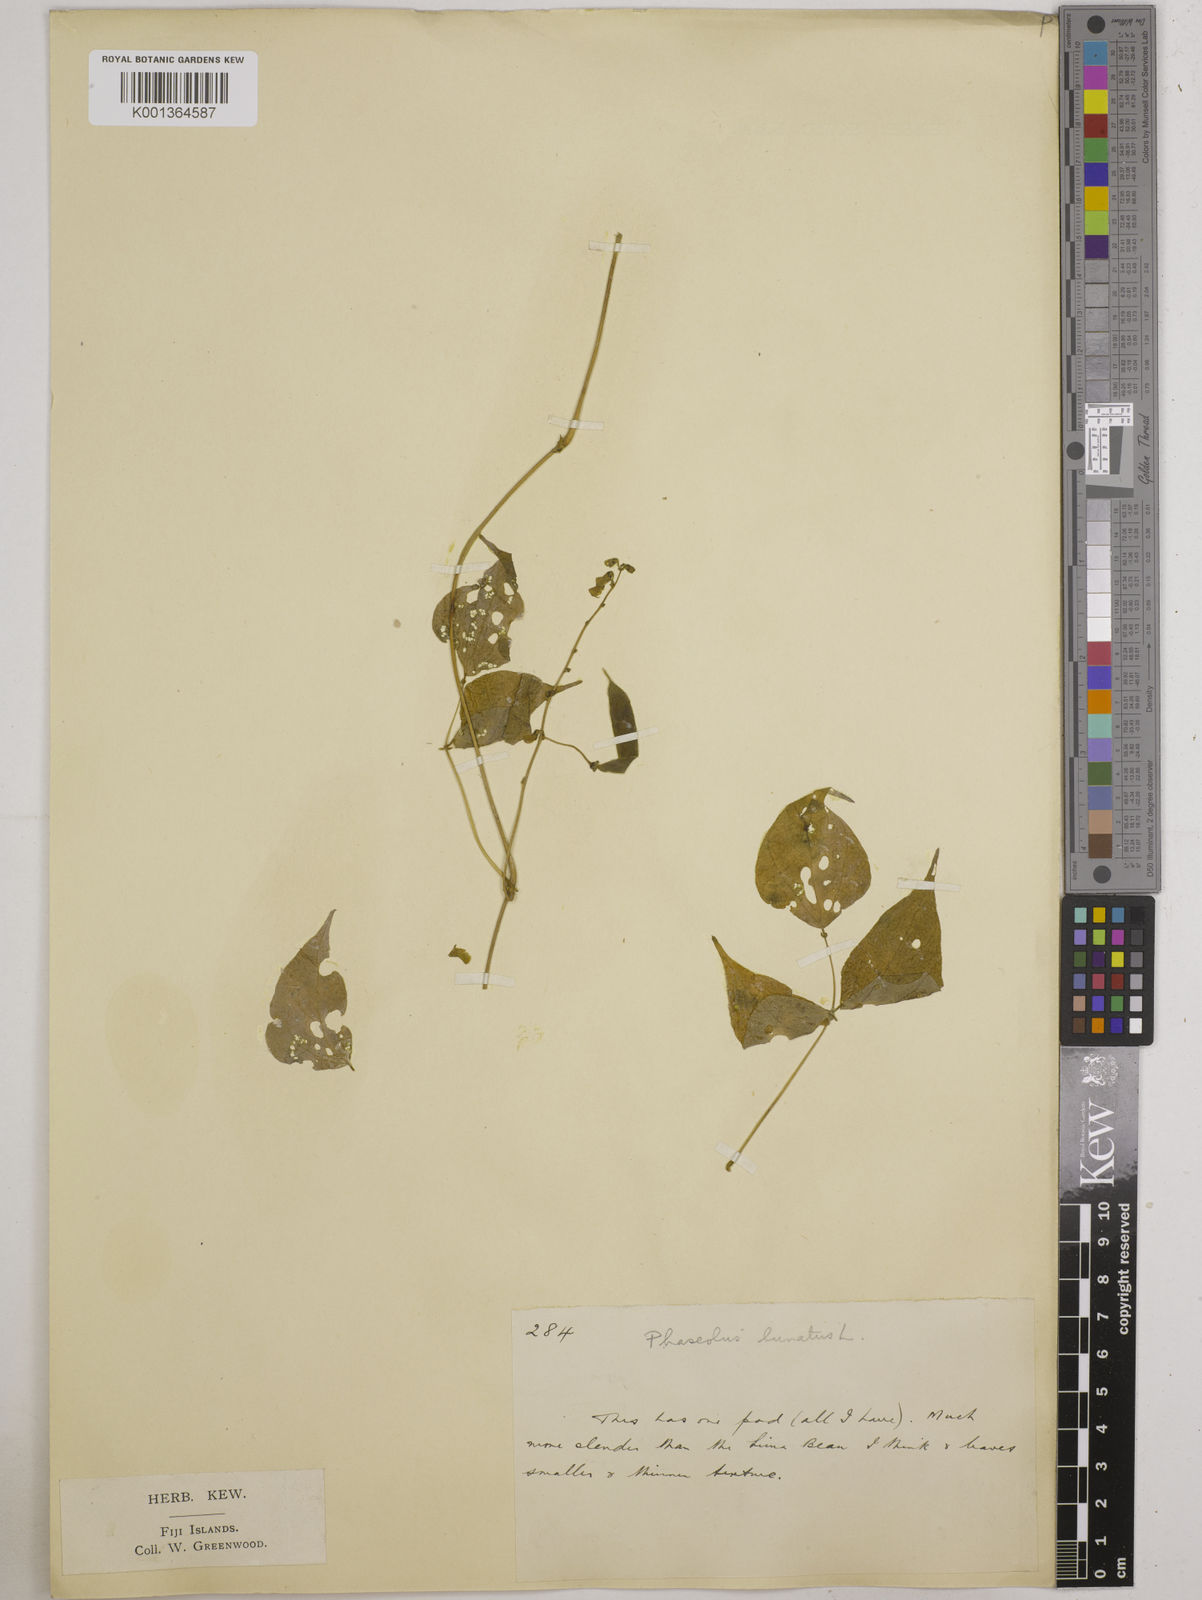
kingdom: Plantae
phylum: Tracheophyta
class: Magnoliopsida
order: Fabales
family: Fabaceae
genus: Phaseolus
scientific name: Phaseolus lunatus
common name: Sieva bean
